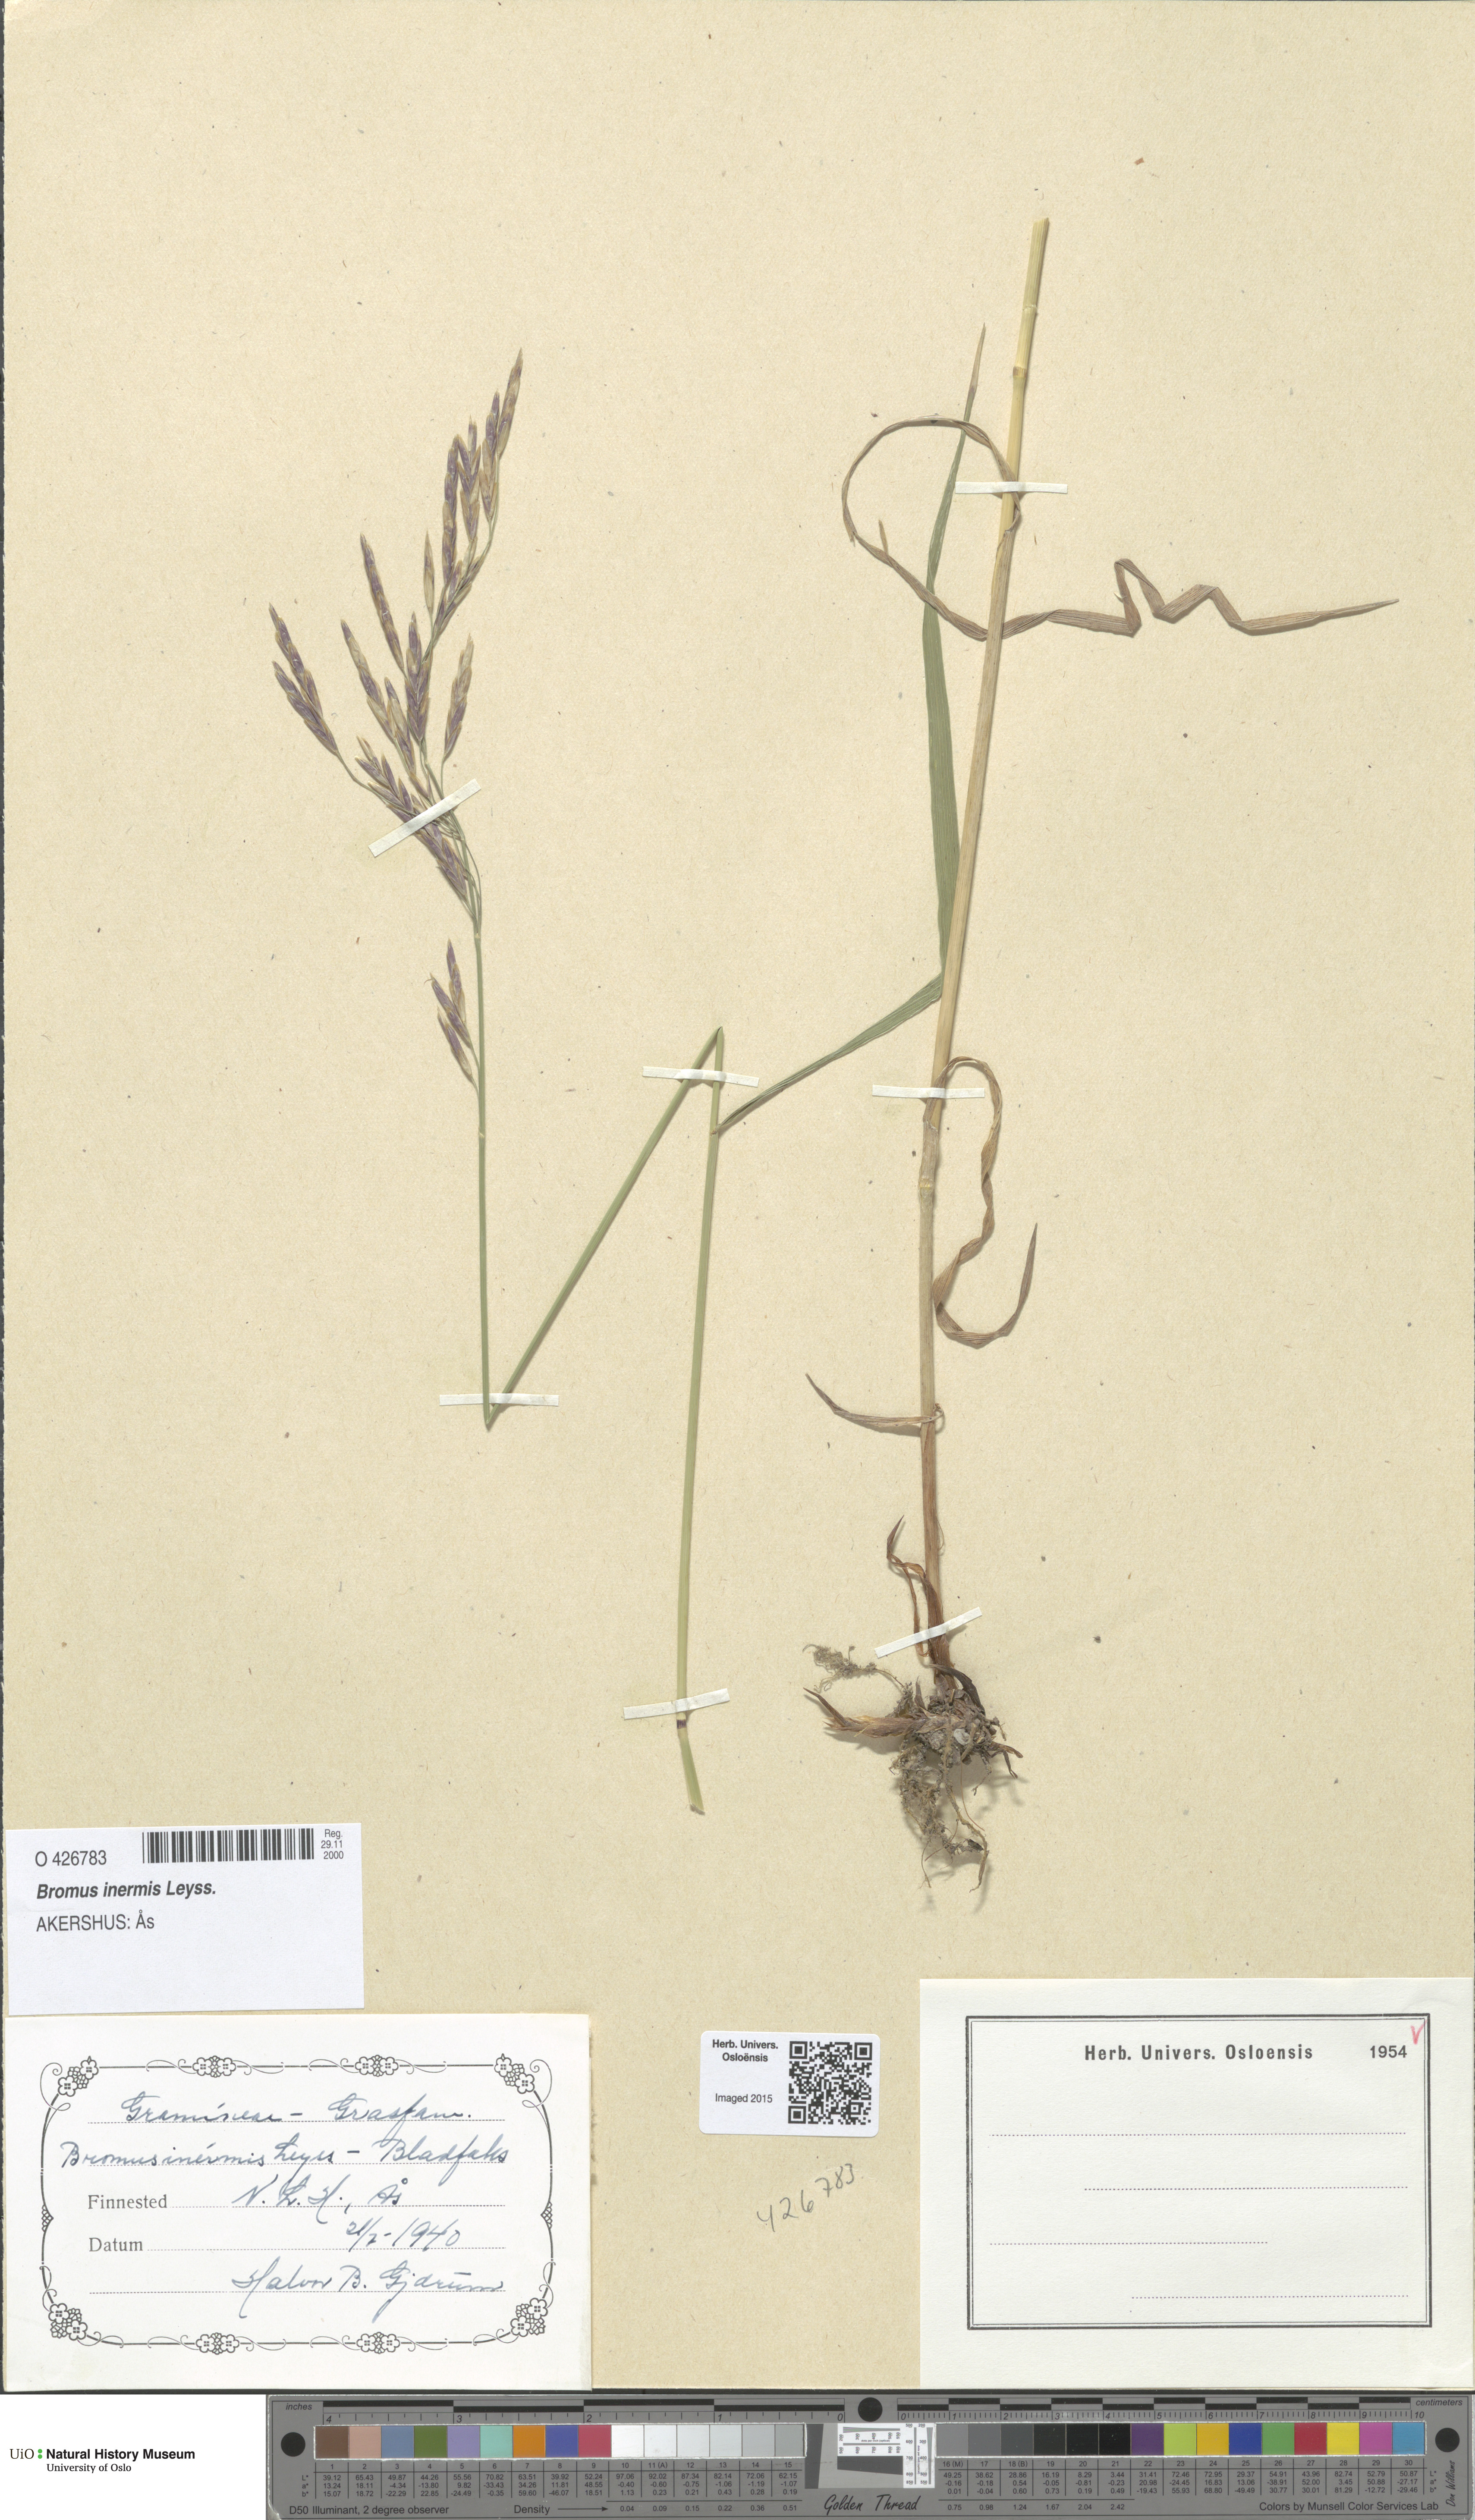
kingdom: Plantae
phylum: Tracheophyta
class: Liliopsida
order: Poales
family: Poaceae
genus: Bromus
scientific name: Bromus inermis
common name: Smooth brome
